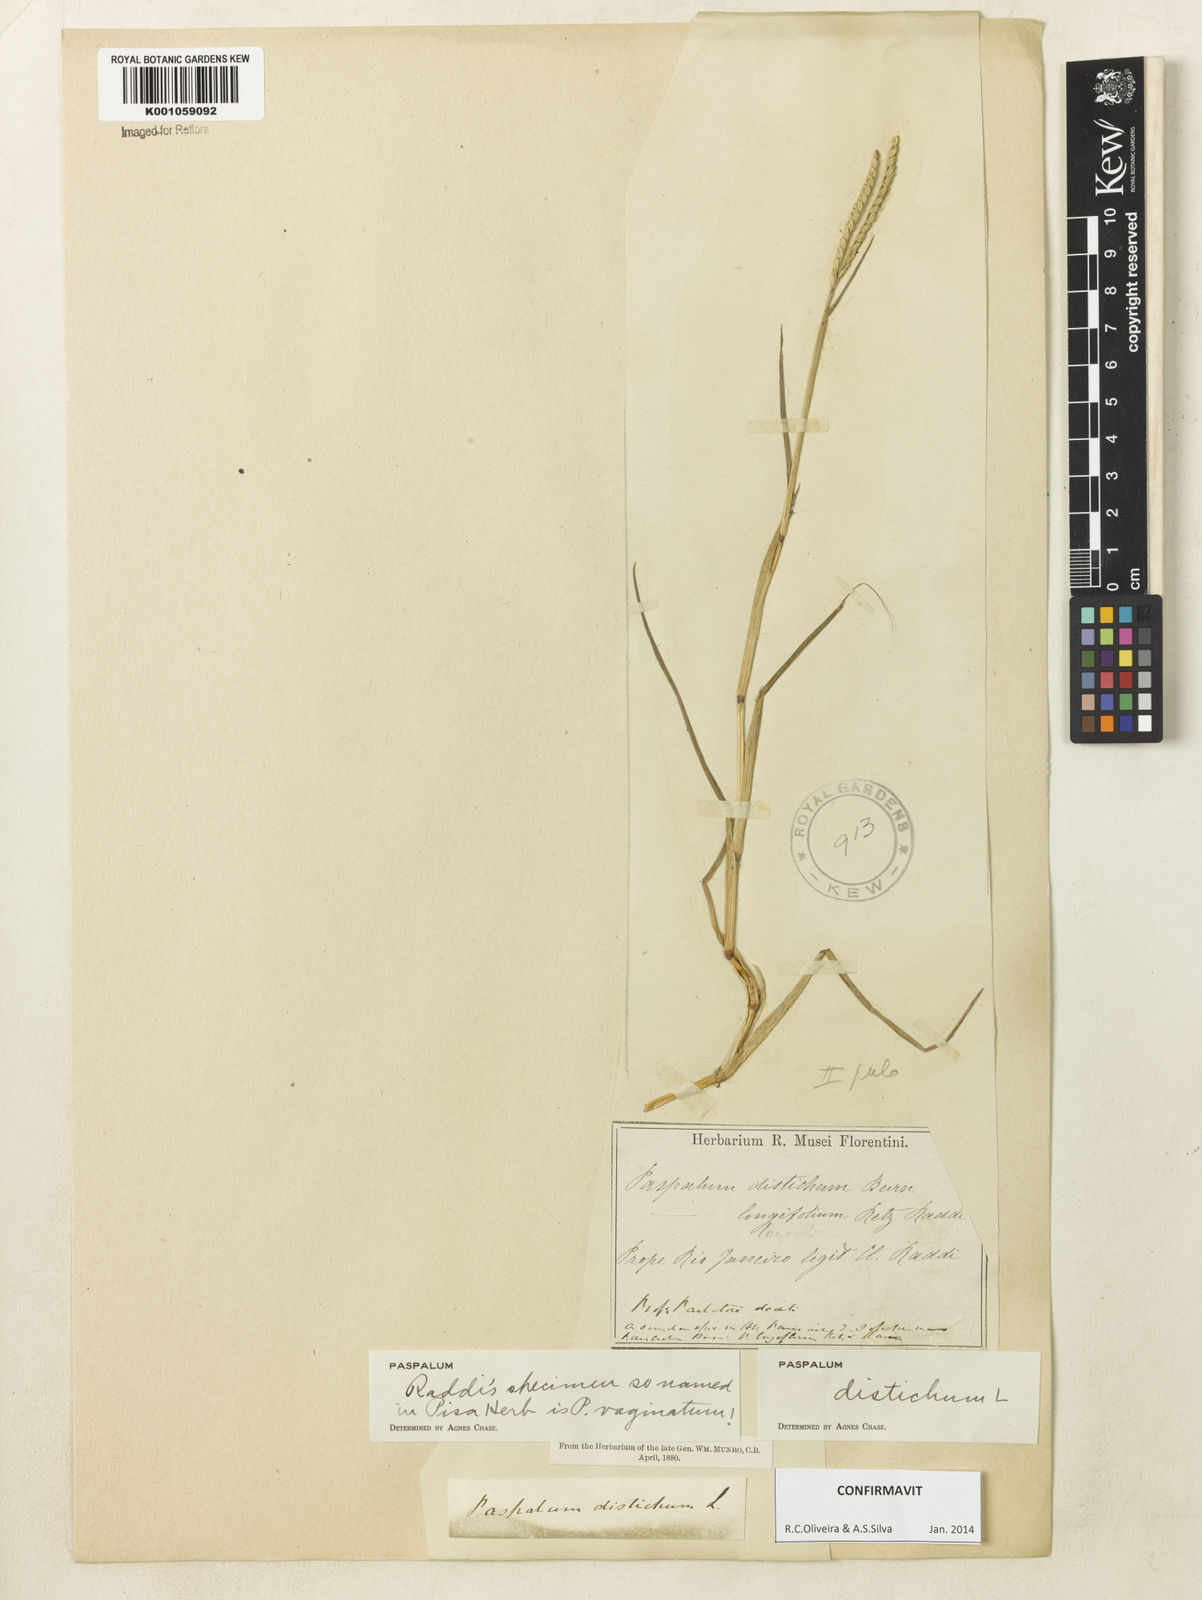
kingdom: Plantae
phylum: Tracheophyta
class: Liliopsida
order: Poales
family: Poaceae
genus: Paspalum
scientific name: Paspalum distichum
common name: Knotgrass
